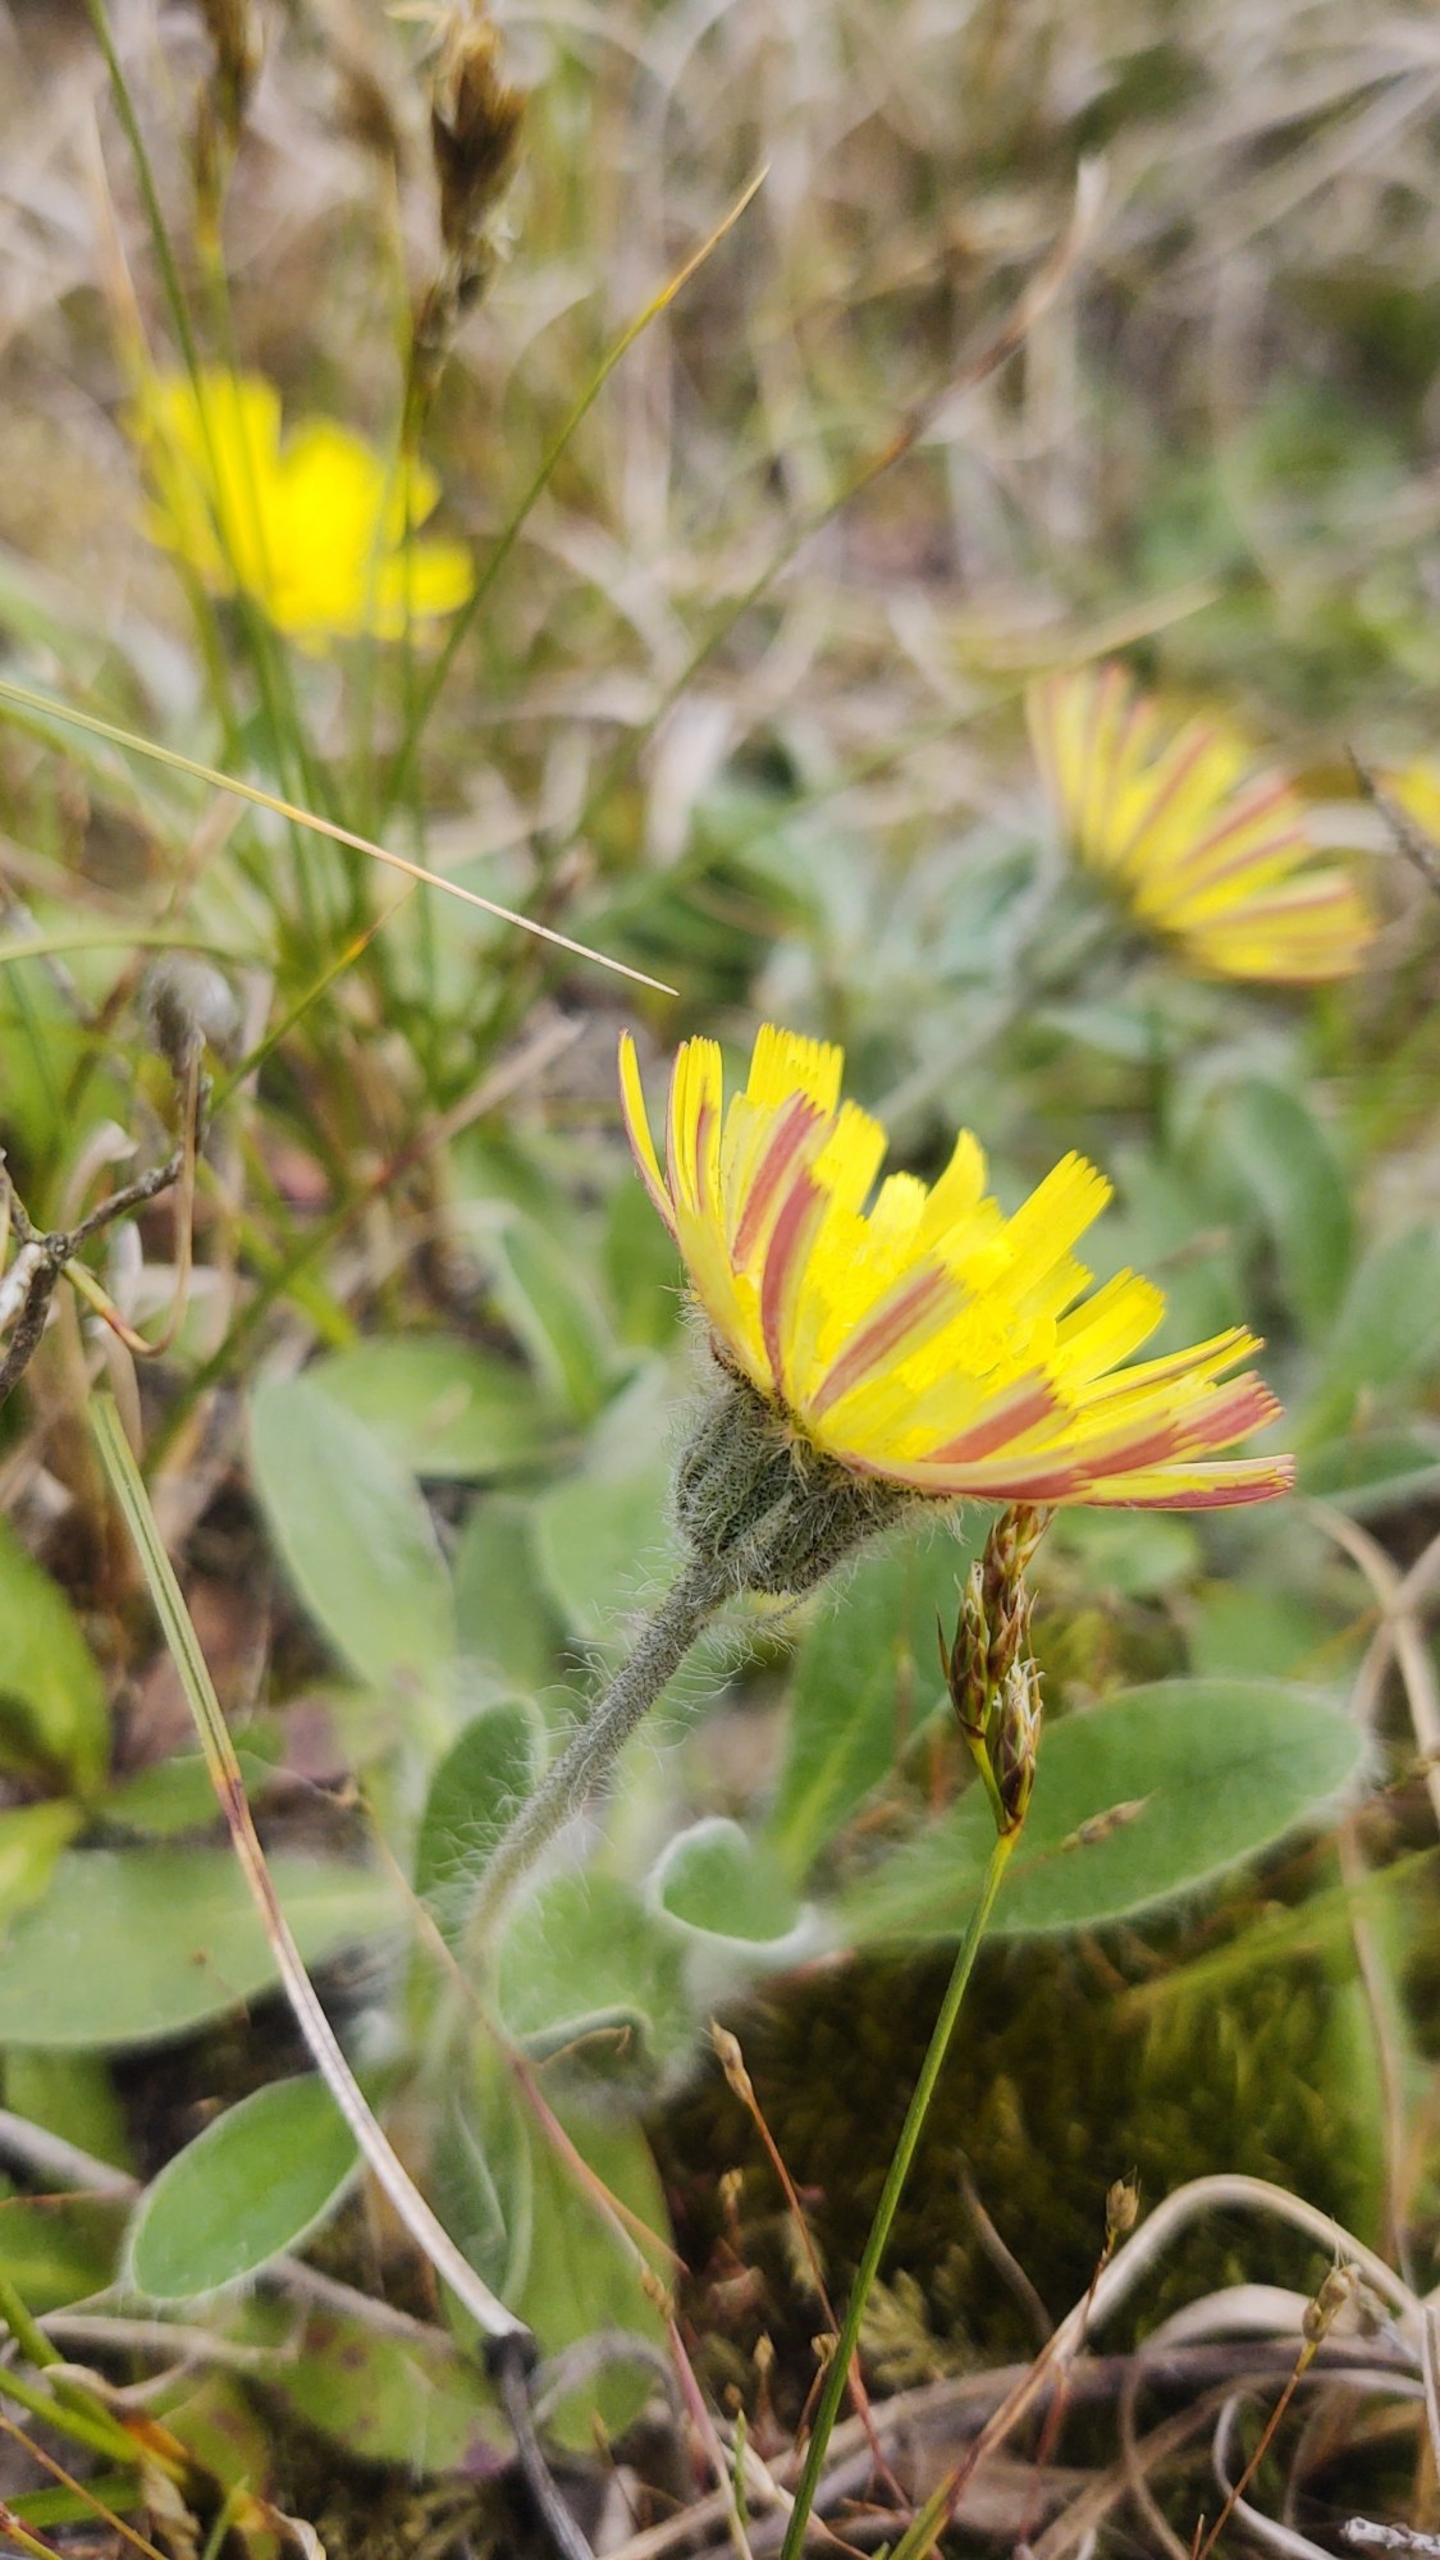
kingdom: Plantae
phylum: Tracheophyta
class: Magnoliopsida
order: Asterales
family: Asteraceae
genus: Pilosella
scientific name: Pilosella peleteriana
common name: Klit-høgeurt
